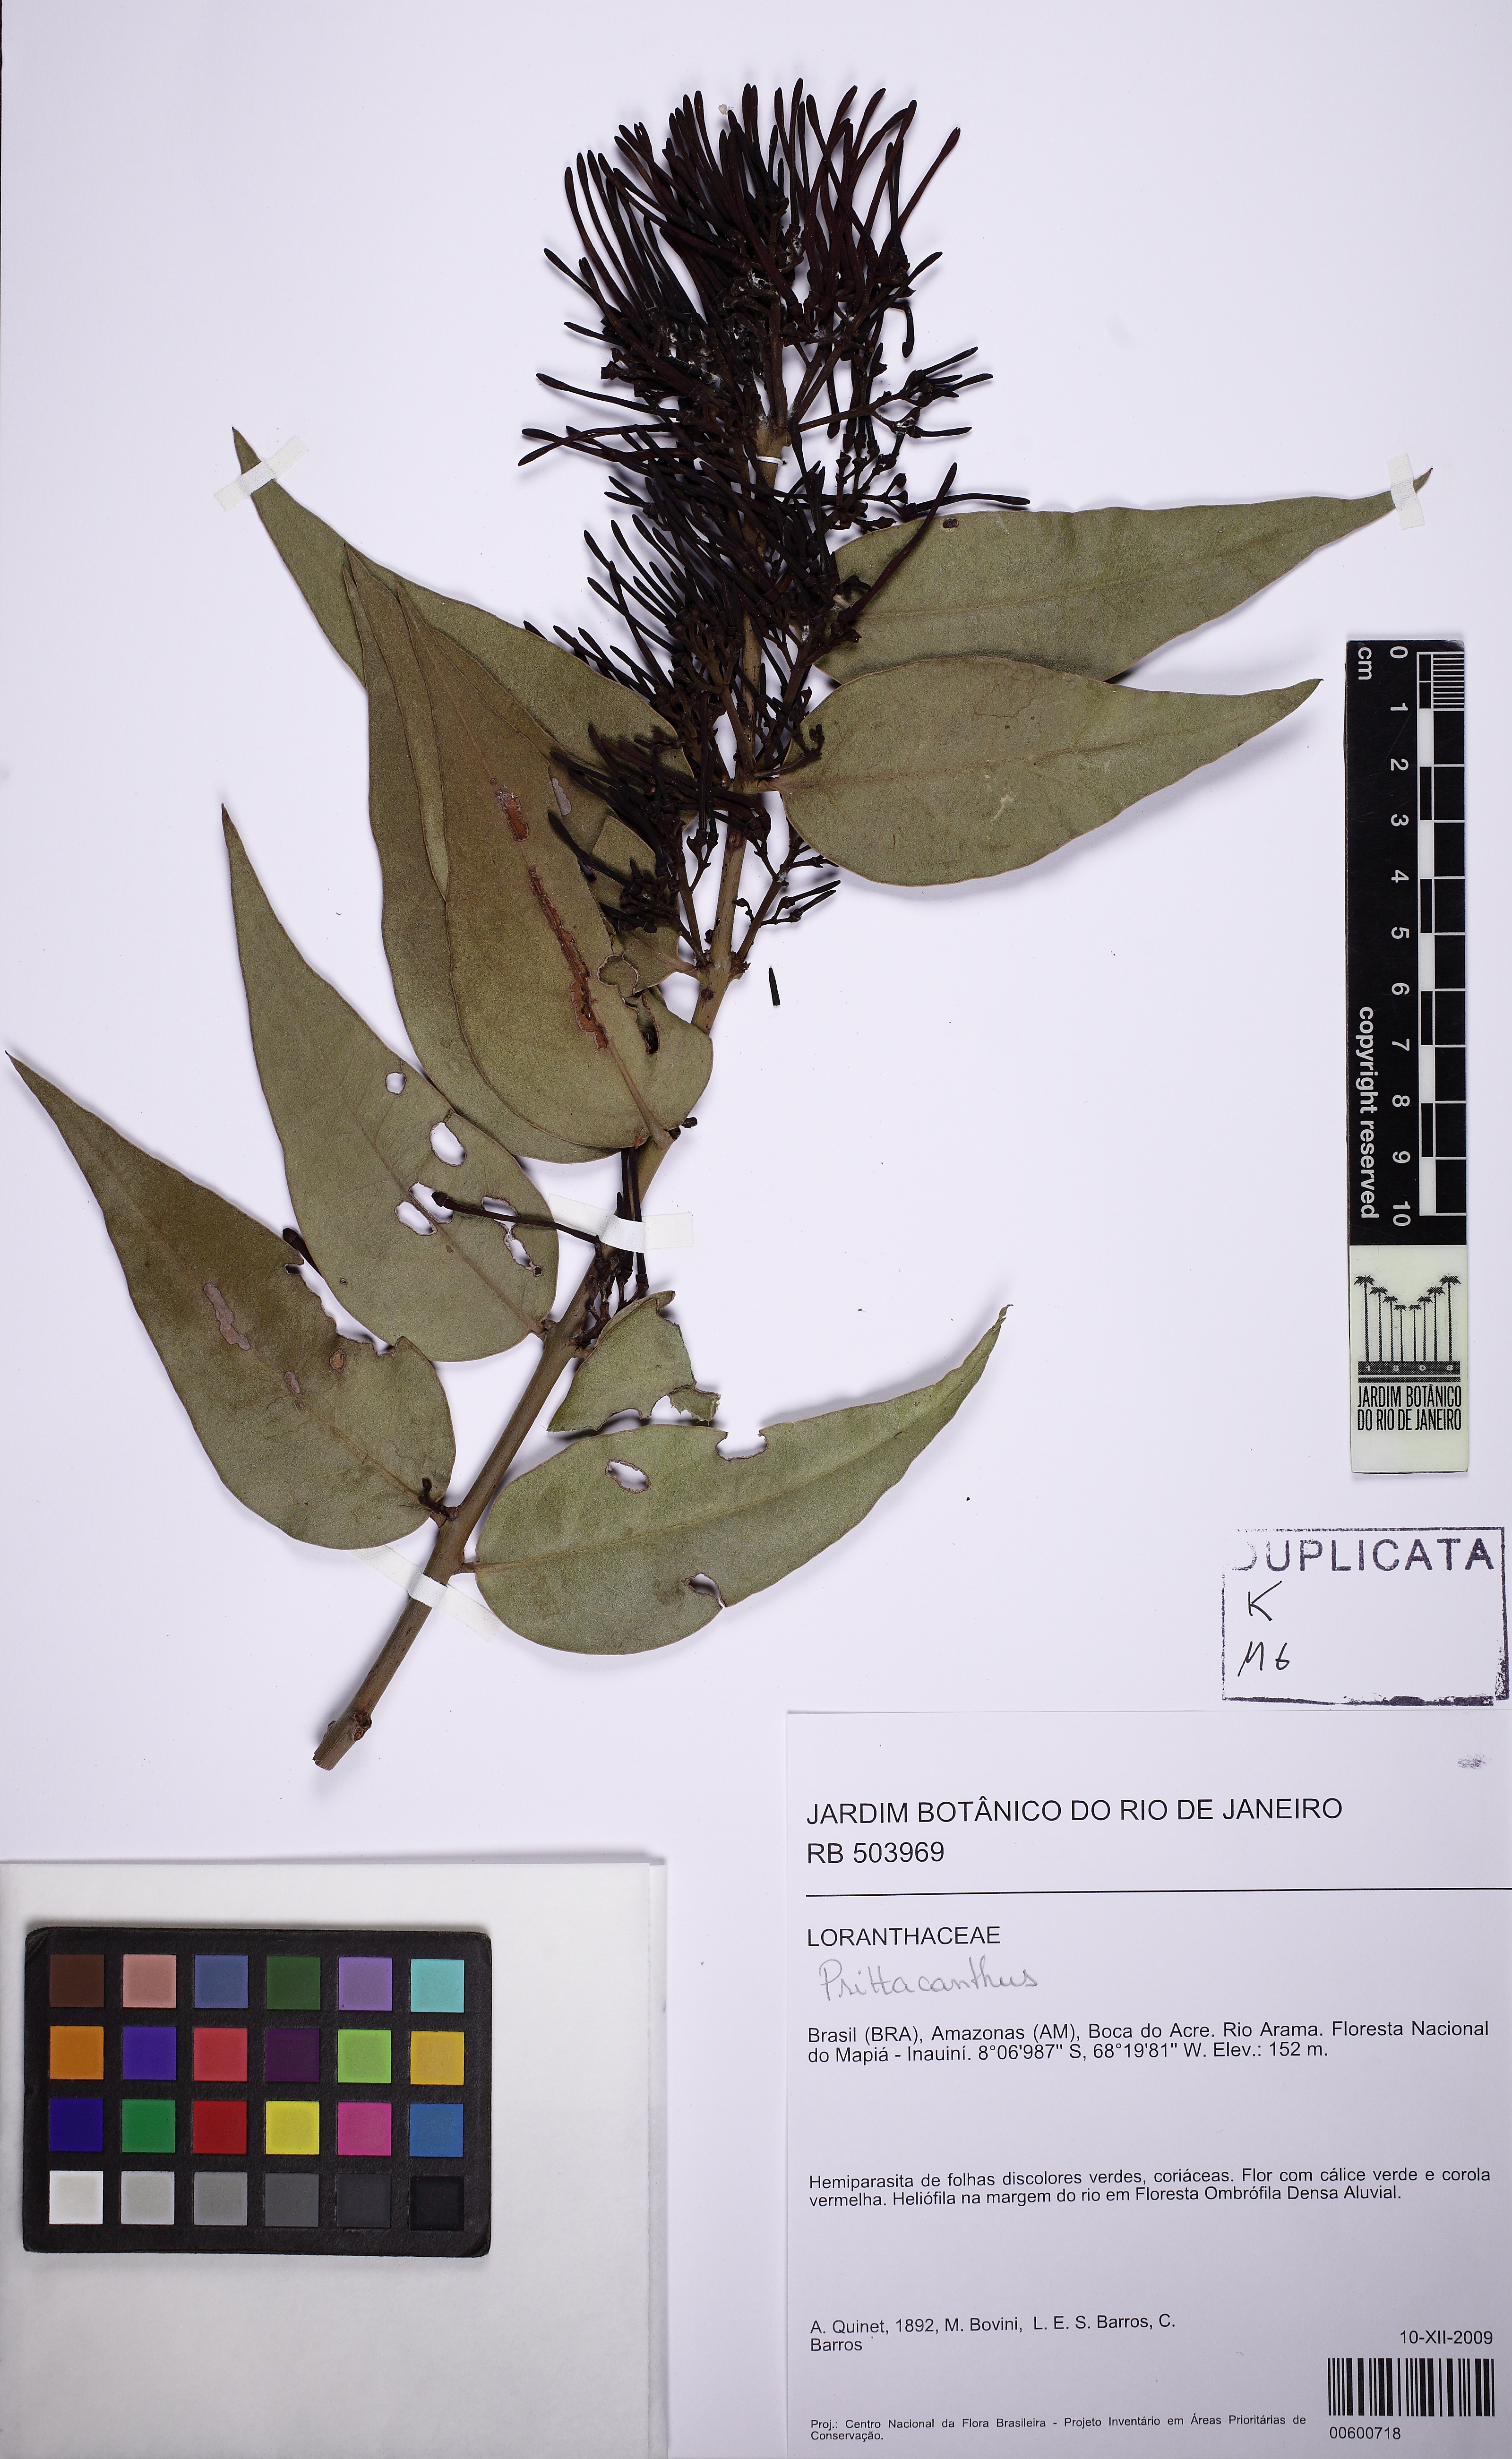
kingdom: Plantae
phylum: Tracheophyta
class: Magnoliopsida
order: Santalales
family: Loranthaceae
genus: Psittacanthus
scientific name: Psittacanthus
